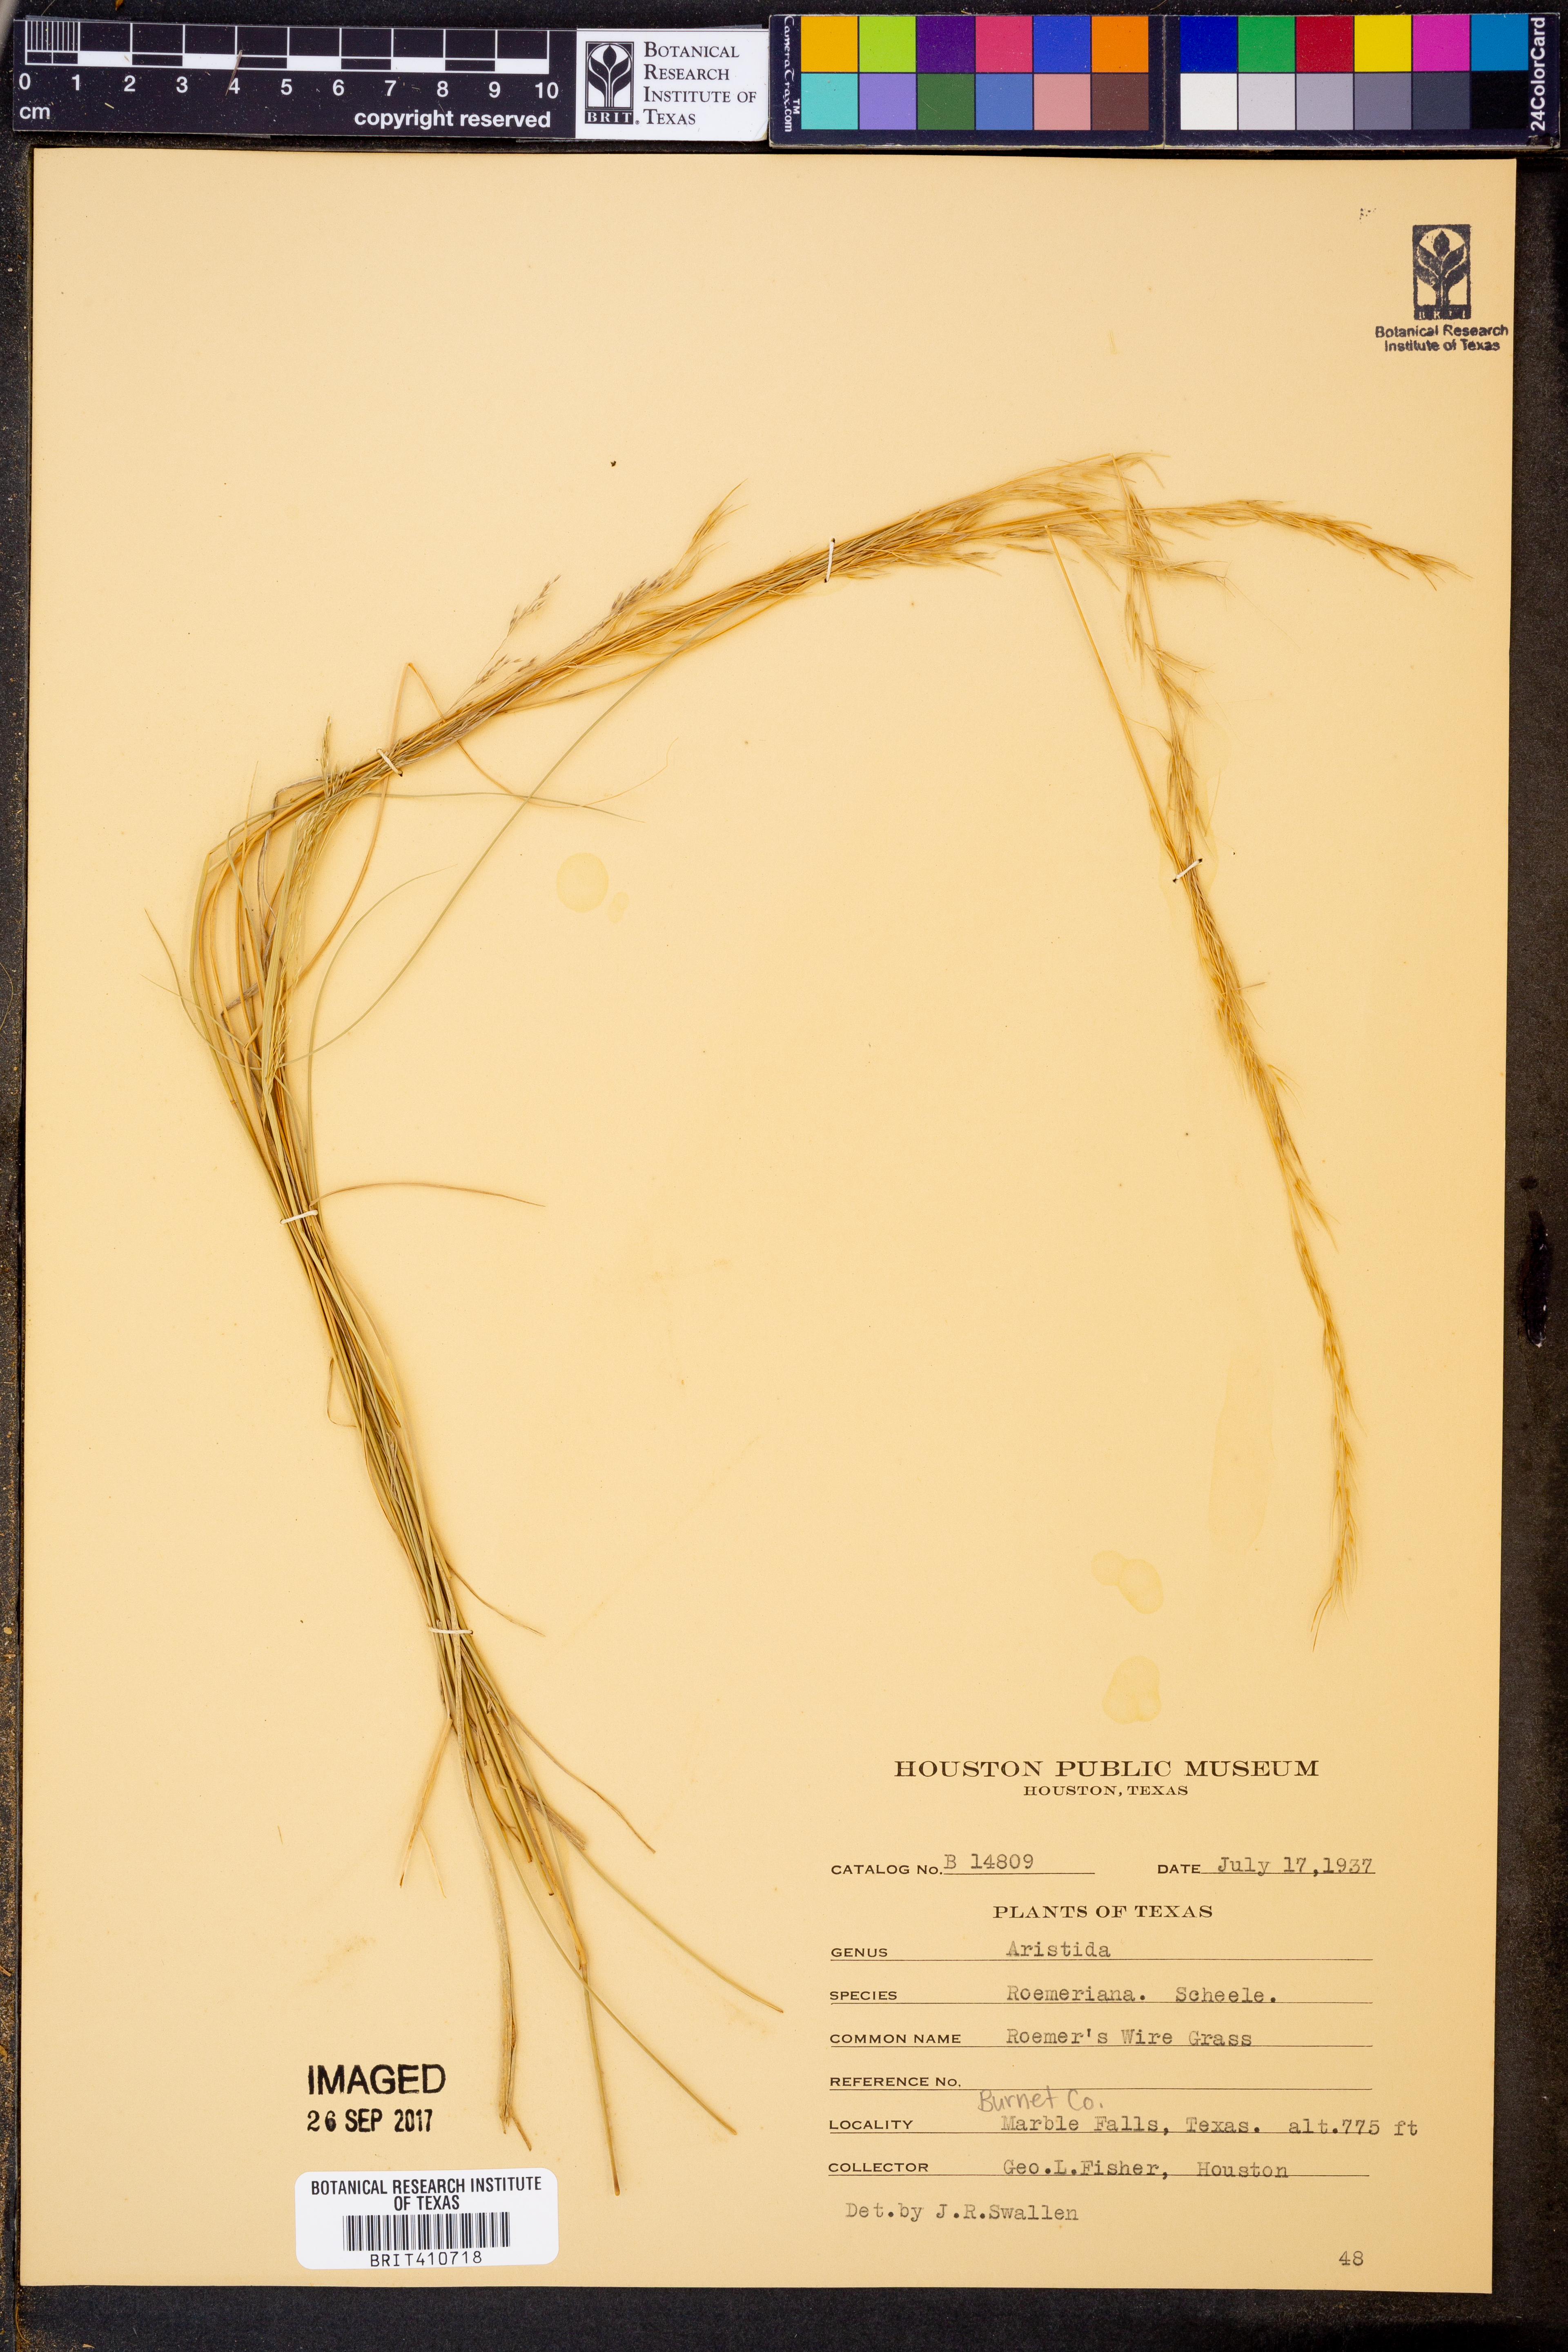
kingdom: Plantae
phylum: Tracheophyta
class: Liliopsida
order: Poales
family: Poaceae
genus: Aristida
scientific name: Aristida purpurea
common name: Purple threeawn
